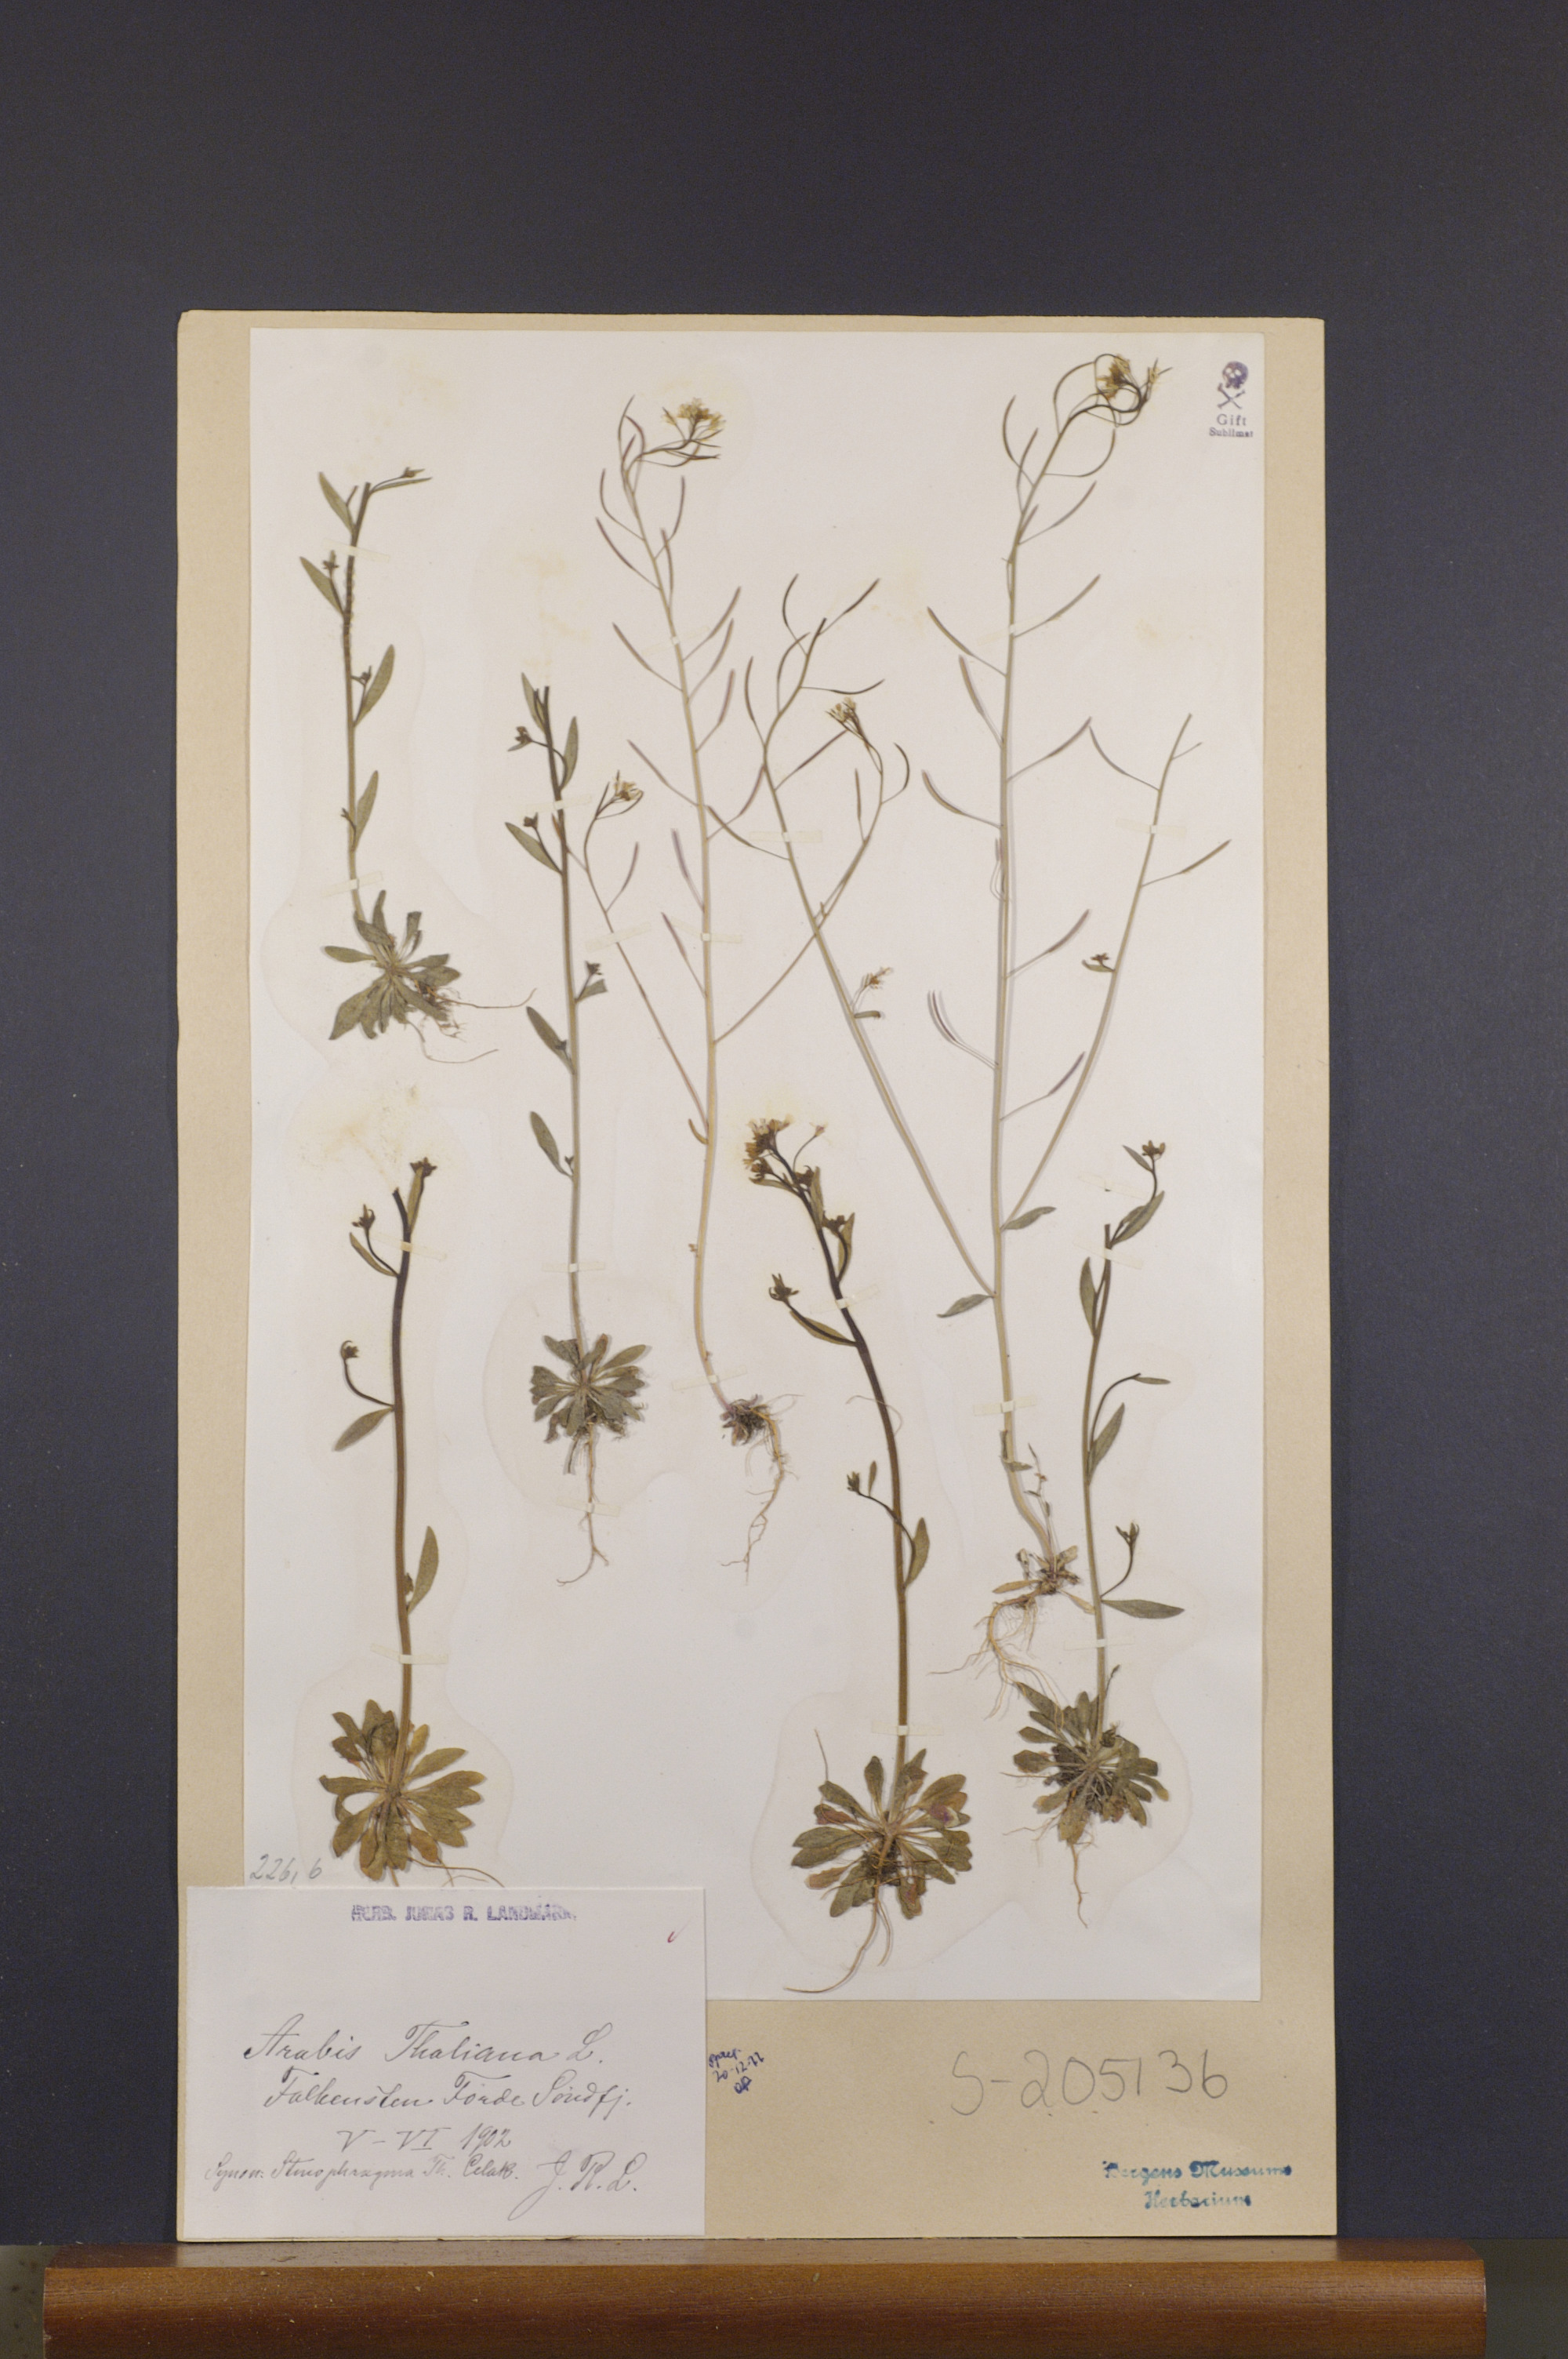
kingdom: Plantae
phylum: Tracheophyta
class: Magnoliopsida
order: Brassicales
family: Brassicaceae
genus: Arabidopsis
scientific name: Arabidopsis thaliana
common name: Thale cress
